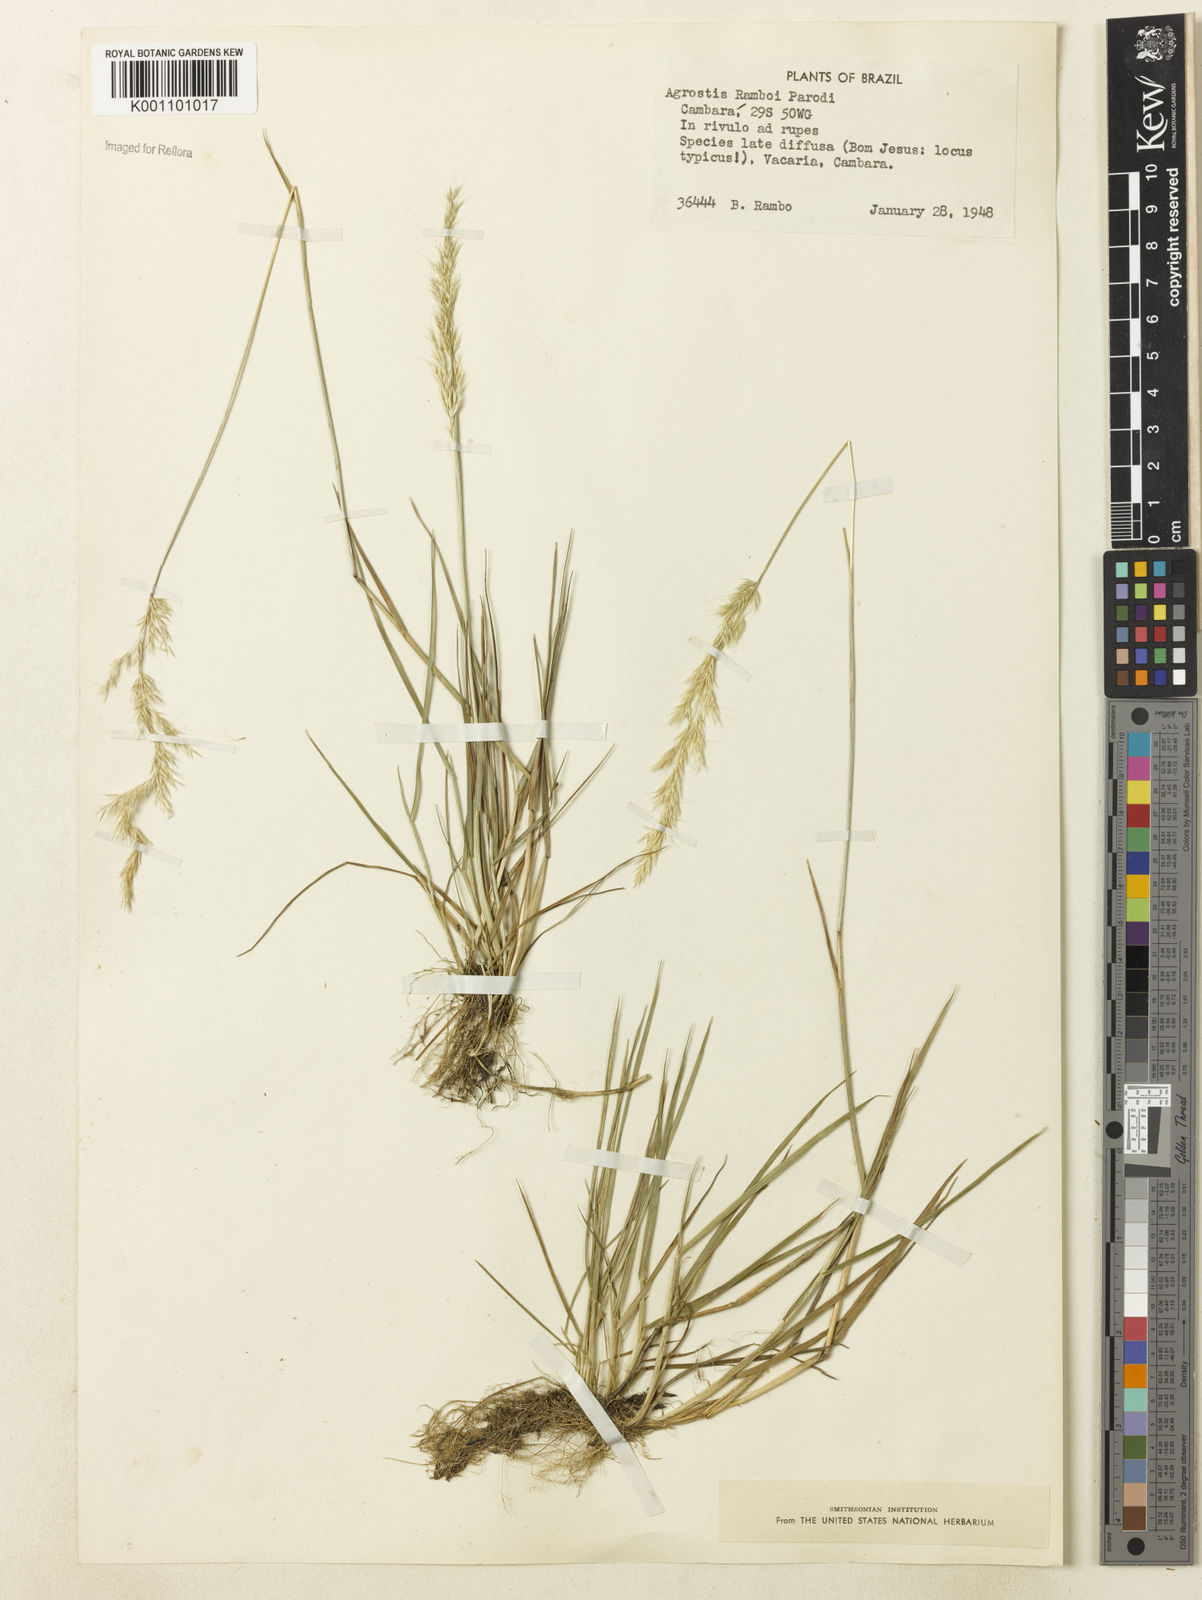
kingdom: Plantae
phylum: Tracheophyta
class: Liliopsida
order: Poales
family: Poaceae
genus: Agrostis
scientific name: Agrostis hygrometrica
